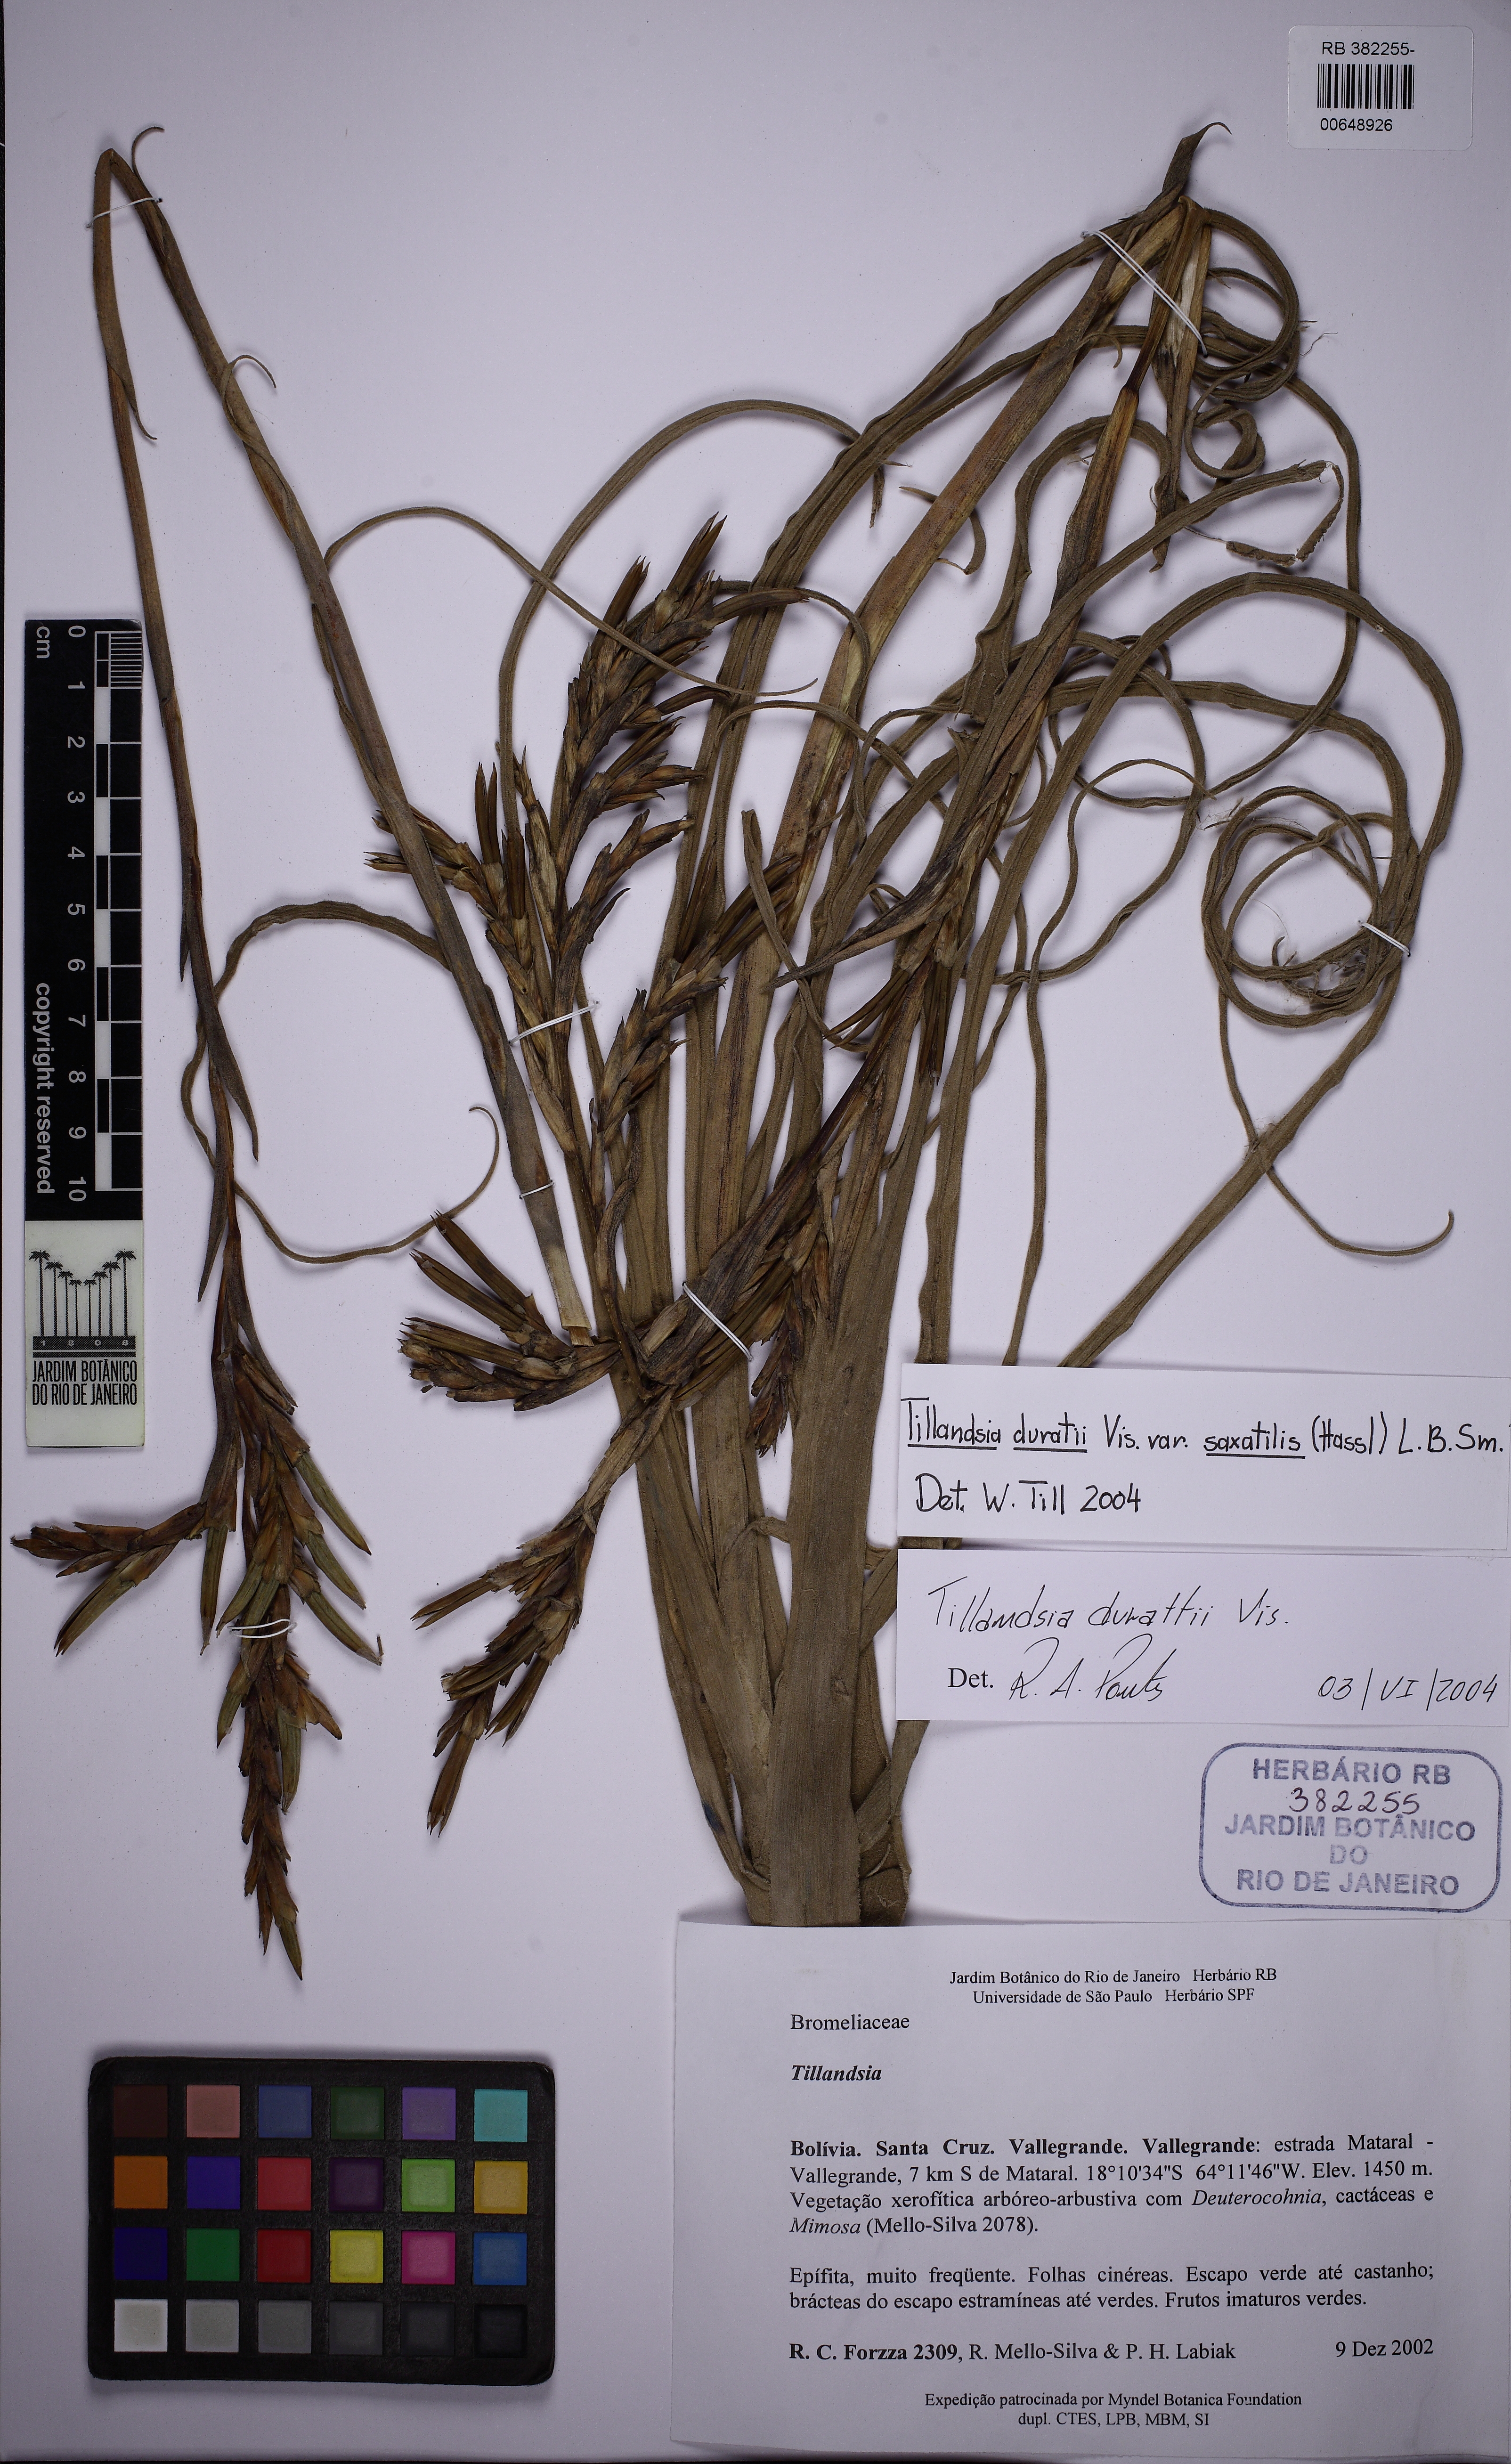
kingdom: Plantae
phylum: Tracheophyta
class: Liliopsida
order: Poales
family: Bromeliaceae
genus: Tillandsia
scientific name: Tillandsia duratii
